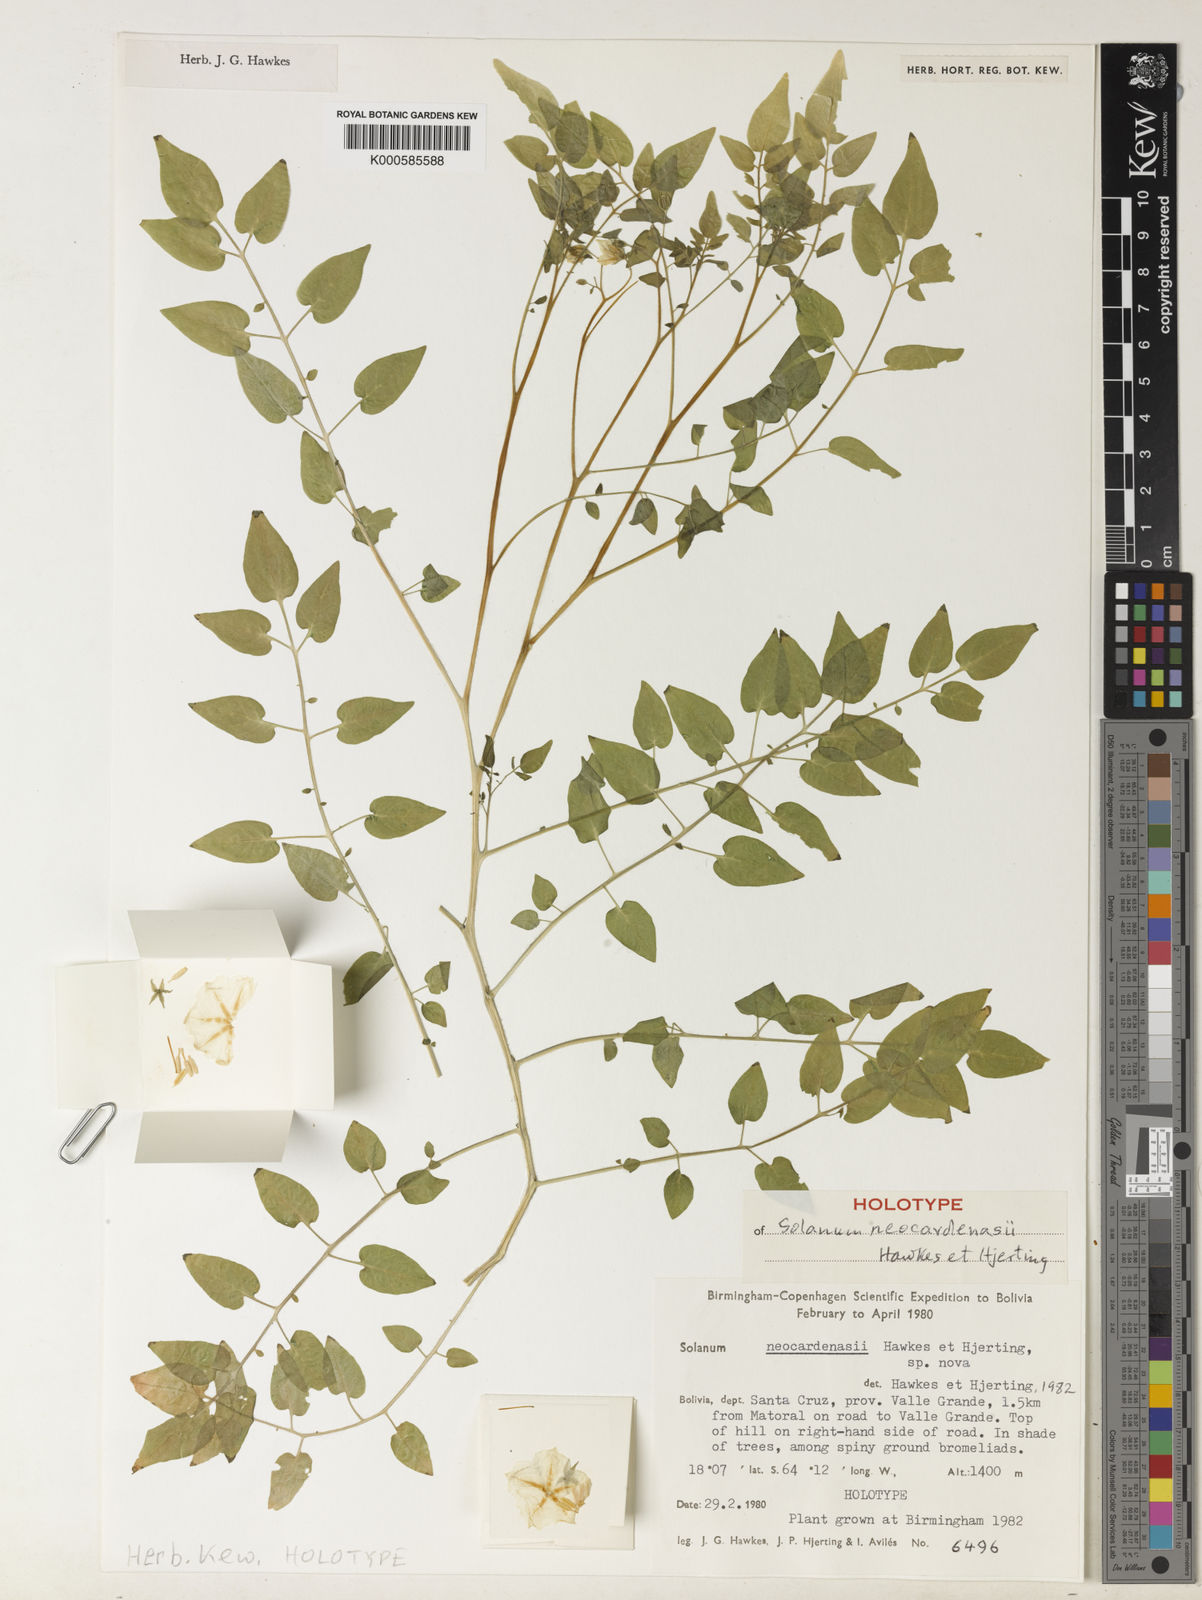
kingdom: Plantae
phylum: Tracheophyta
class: Magnoliopsida
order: Solanales
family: Solanaceae
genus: Solanum
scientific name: Solanum neocardenasii
